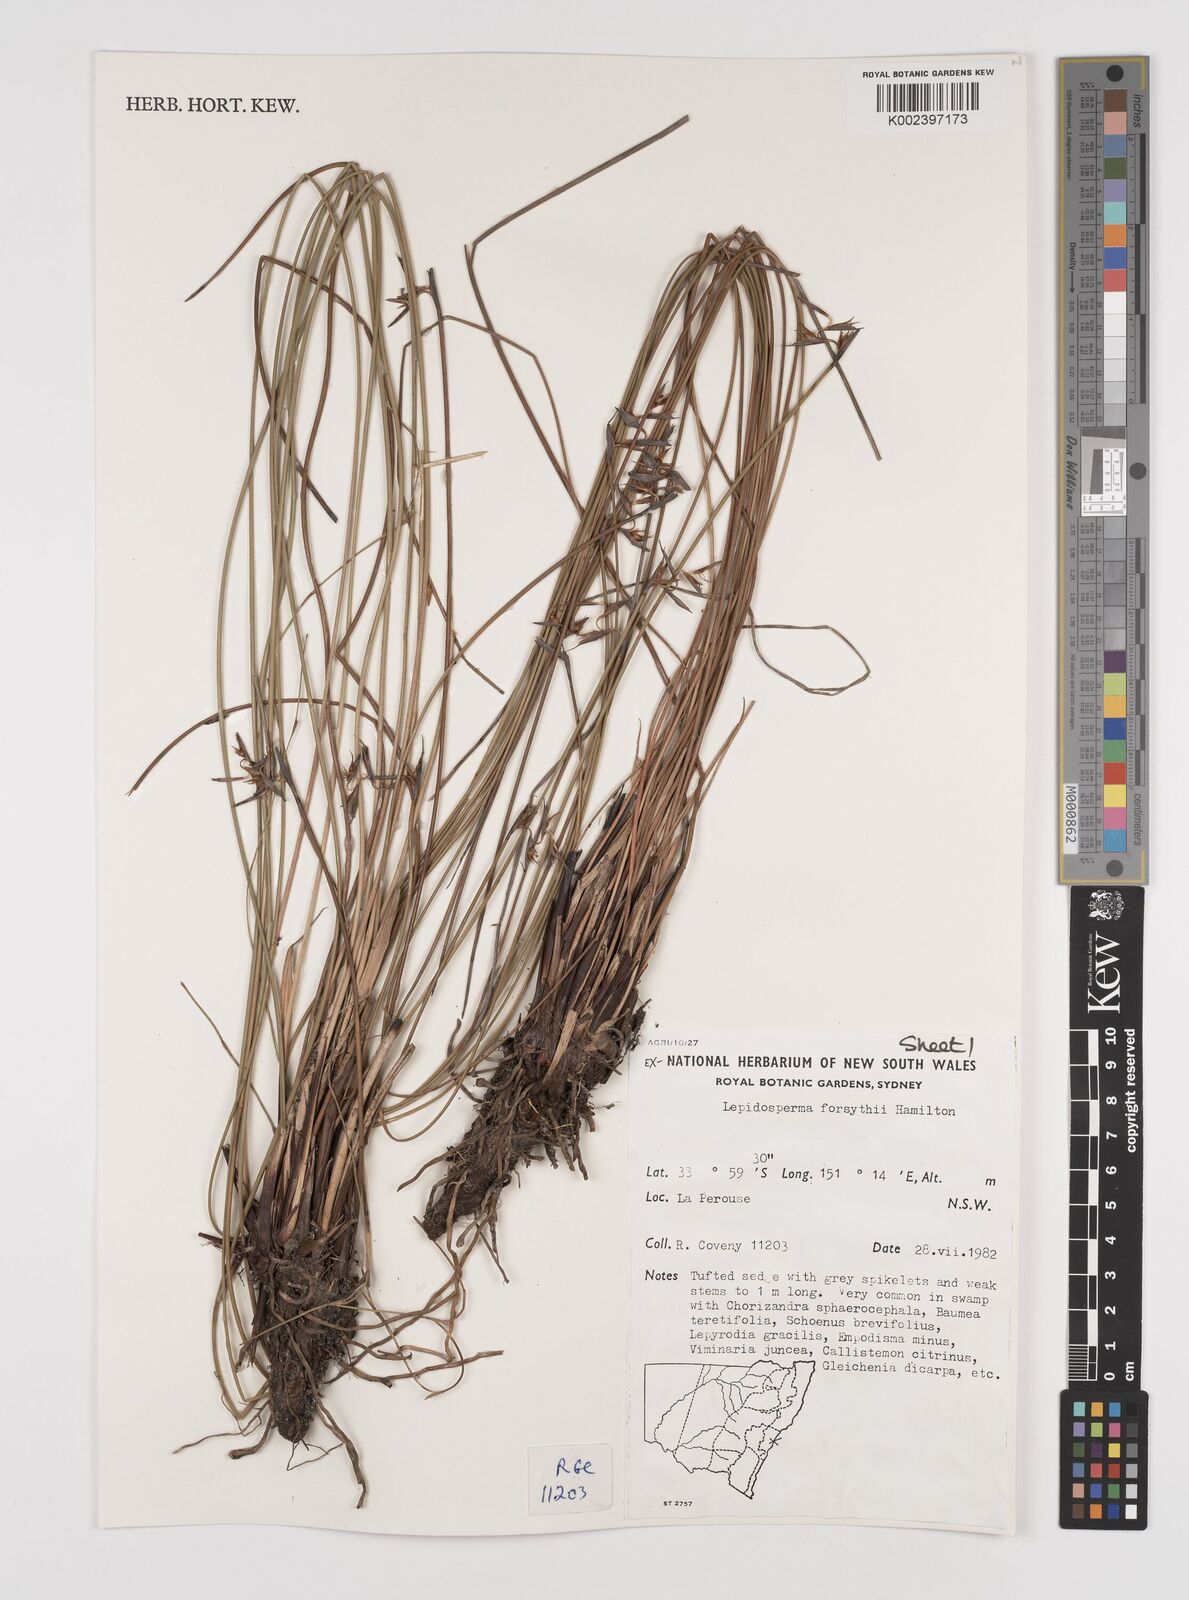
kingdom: Plantae
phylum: Tracheophyta
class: Liliopsida
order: Poales
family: Cyperaceae
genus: Lepidosperma
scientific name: Lepidosperma forsythii
